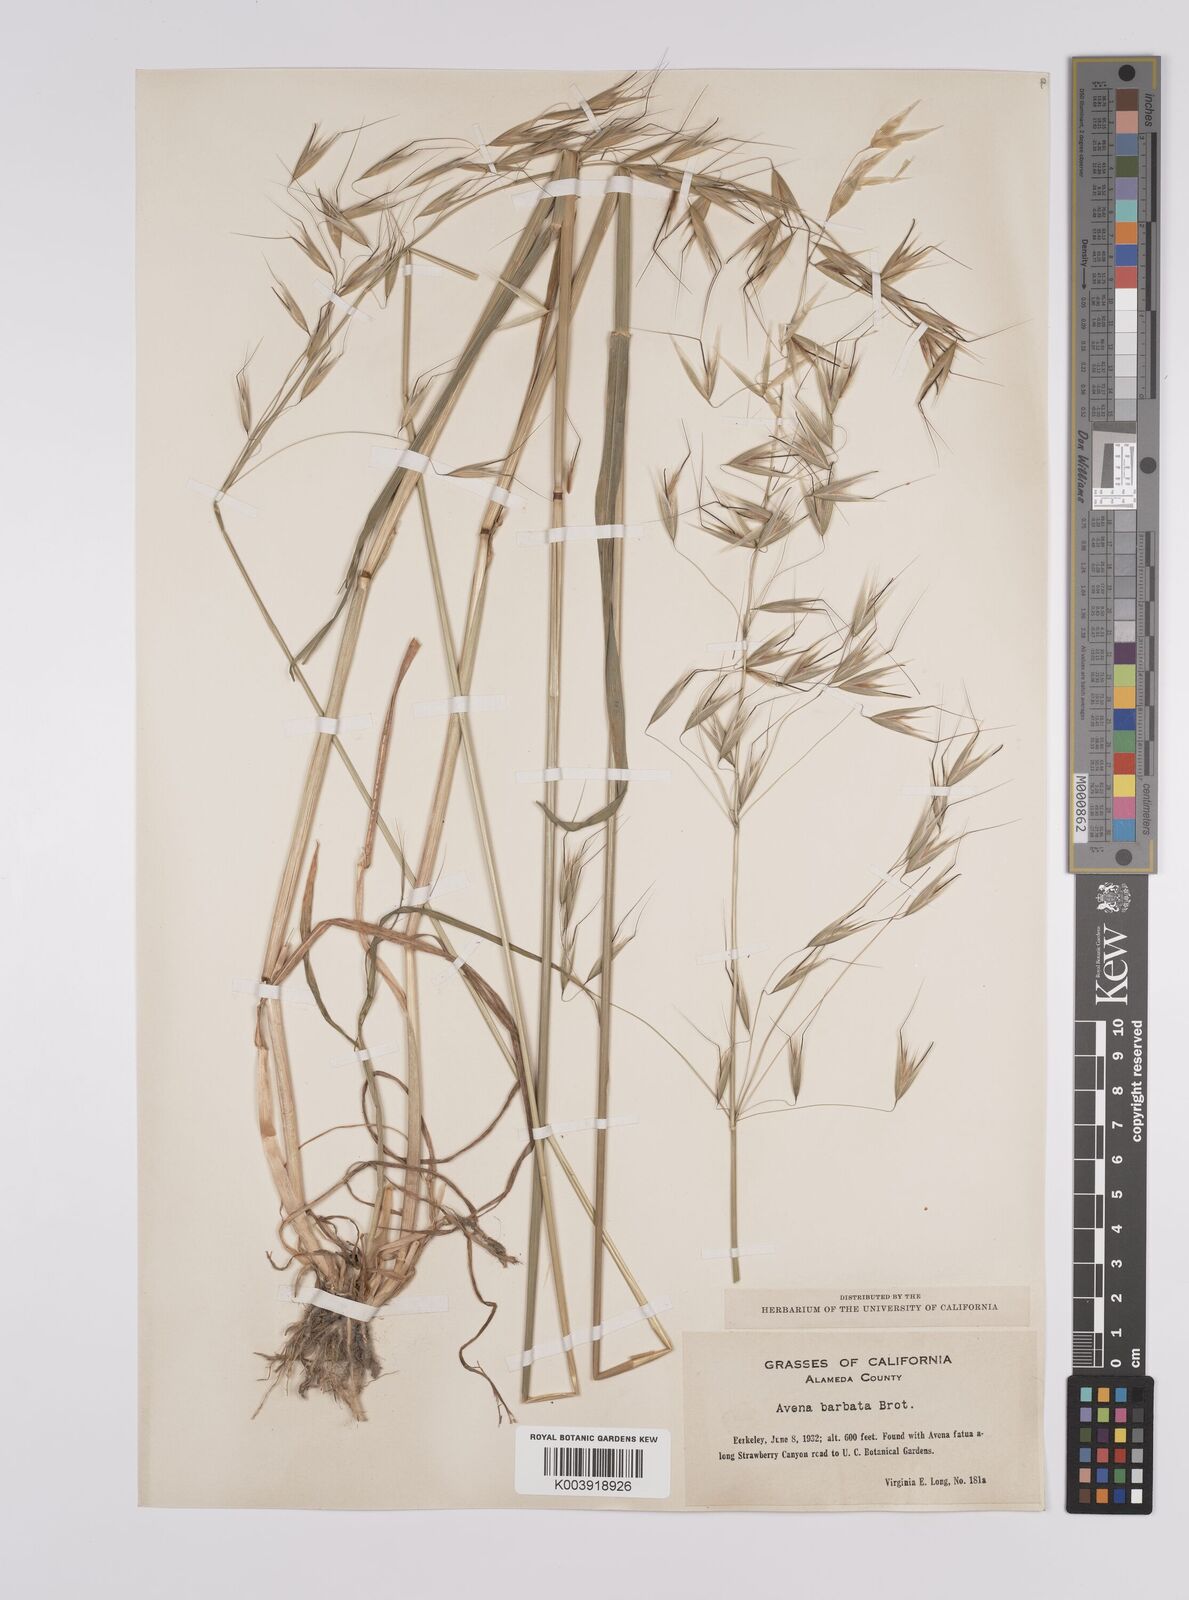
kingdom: Plantae
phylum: Tracheophyta
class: Liliopsida
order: Poales
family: Poaceae
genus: Avena
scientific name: Avena
